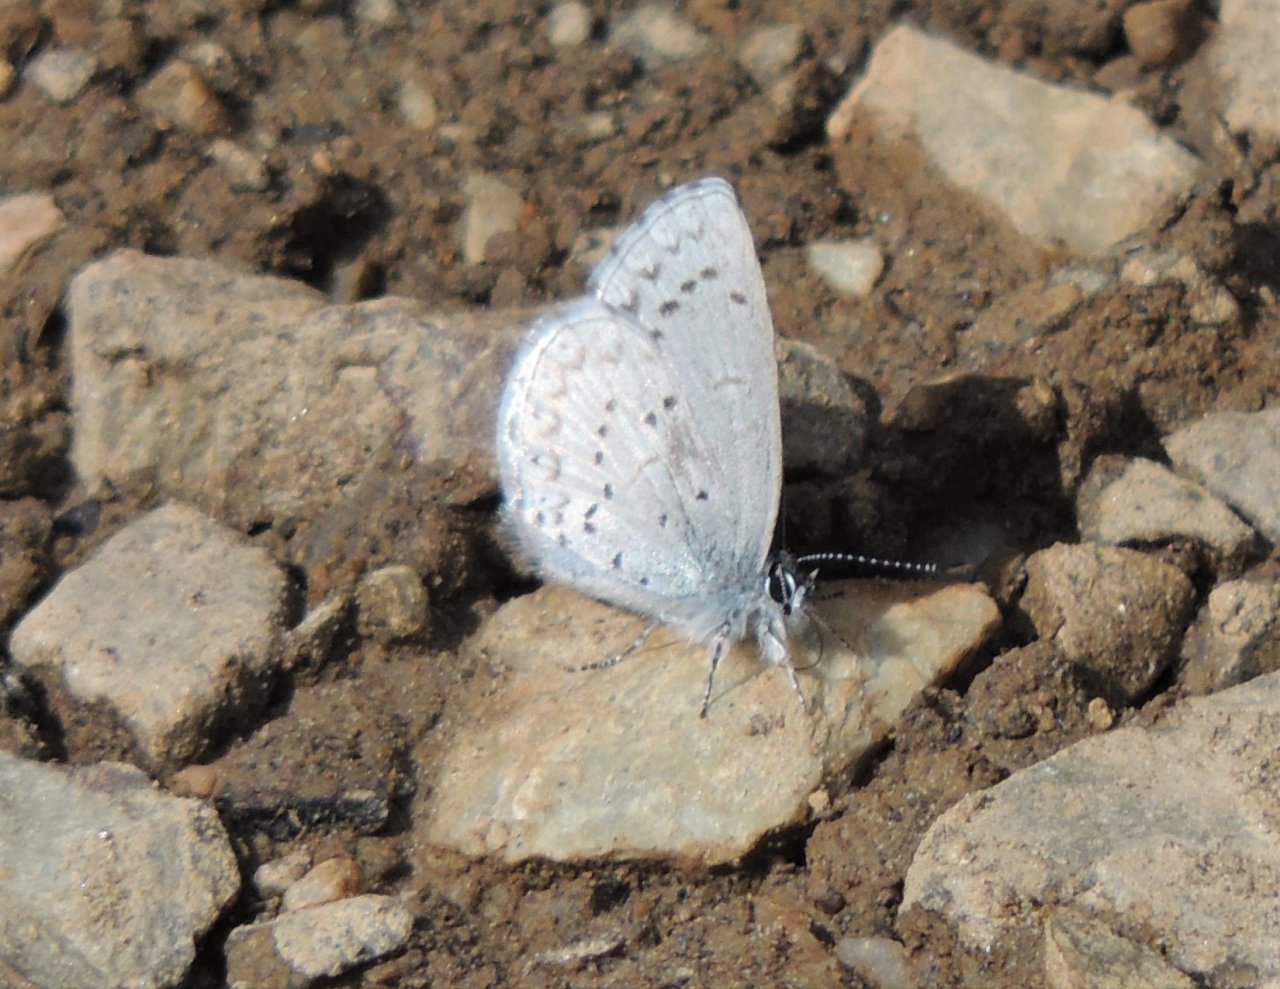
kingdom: Animalia
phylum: Arthropoda
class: Insecta
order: Lepidoptera
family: Lycaenidae
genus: Celastrina
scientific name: Celastrina ladon
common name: Echo Azure
